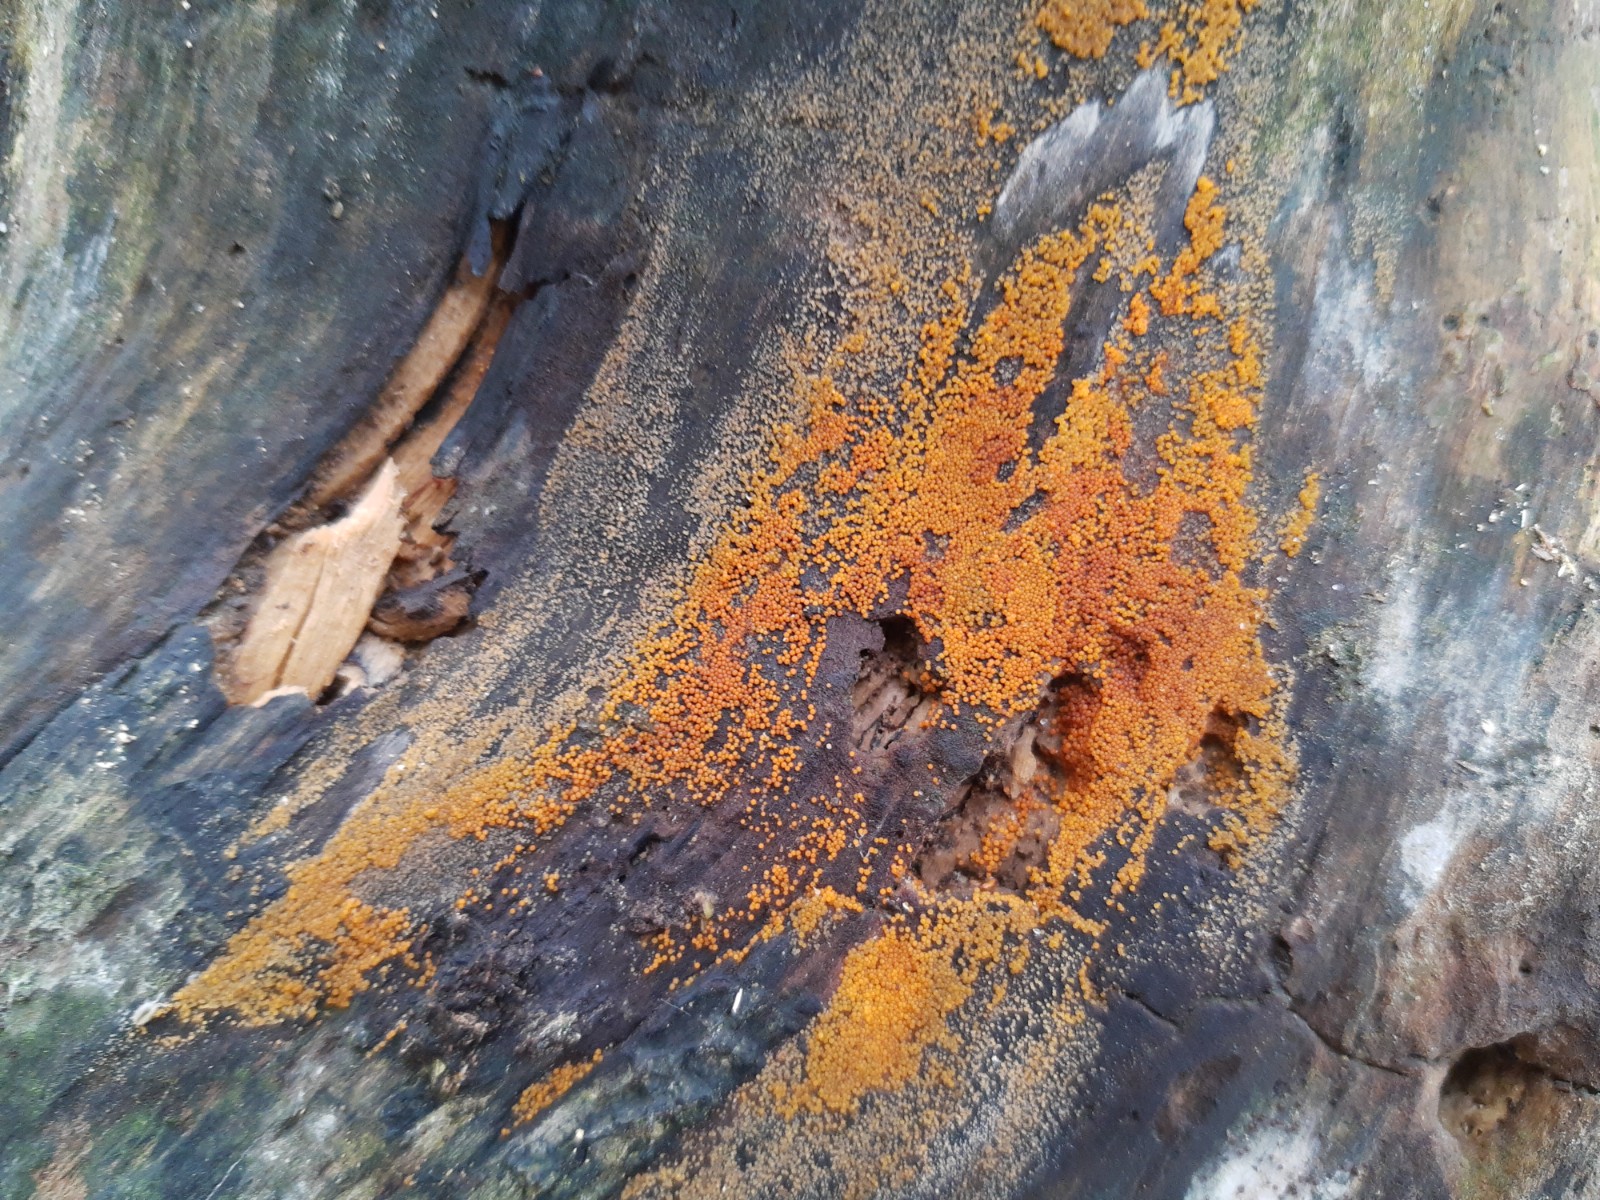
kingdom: Fungi
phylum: Ascomycota
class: Sordariomycetes
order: Hypocreales
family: Nectriaceae
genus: Hydropisphaera
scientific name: Hydropisphaera peziza
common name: skålformet gyldenkerne
